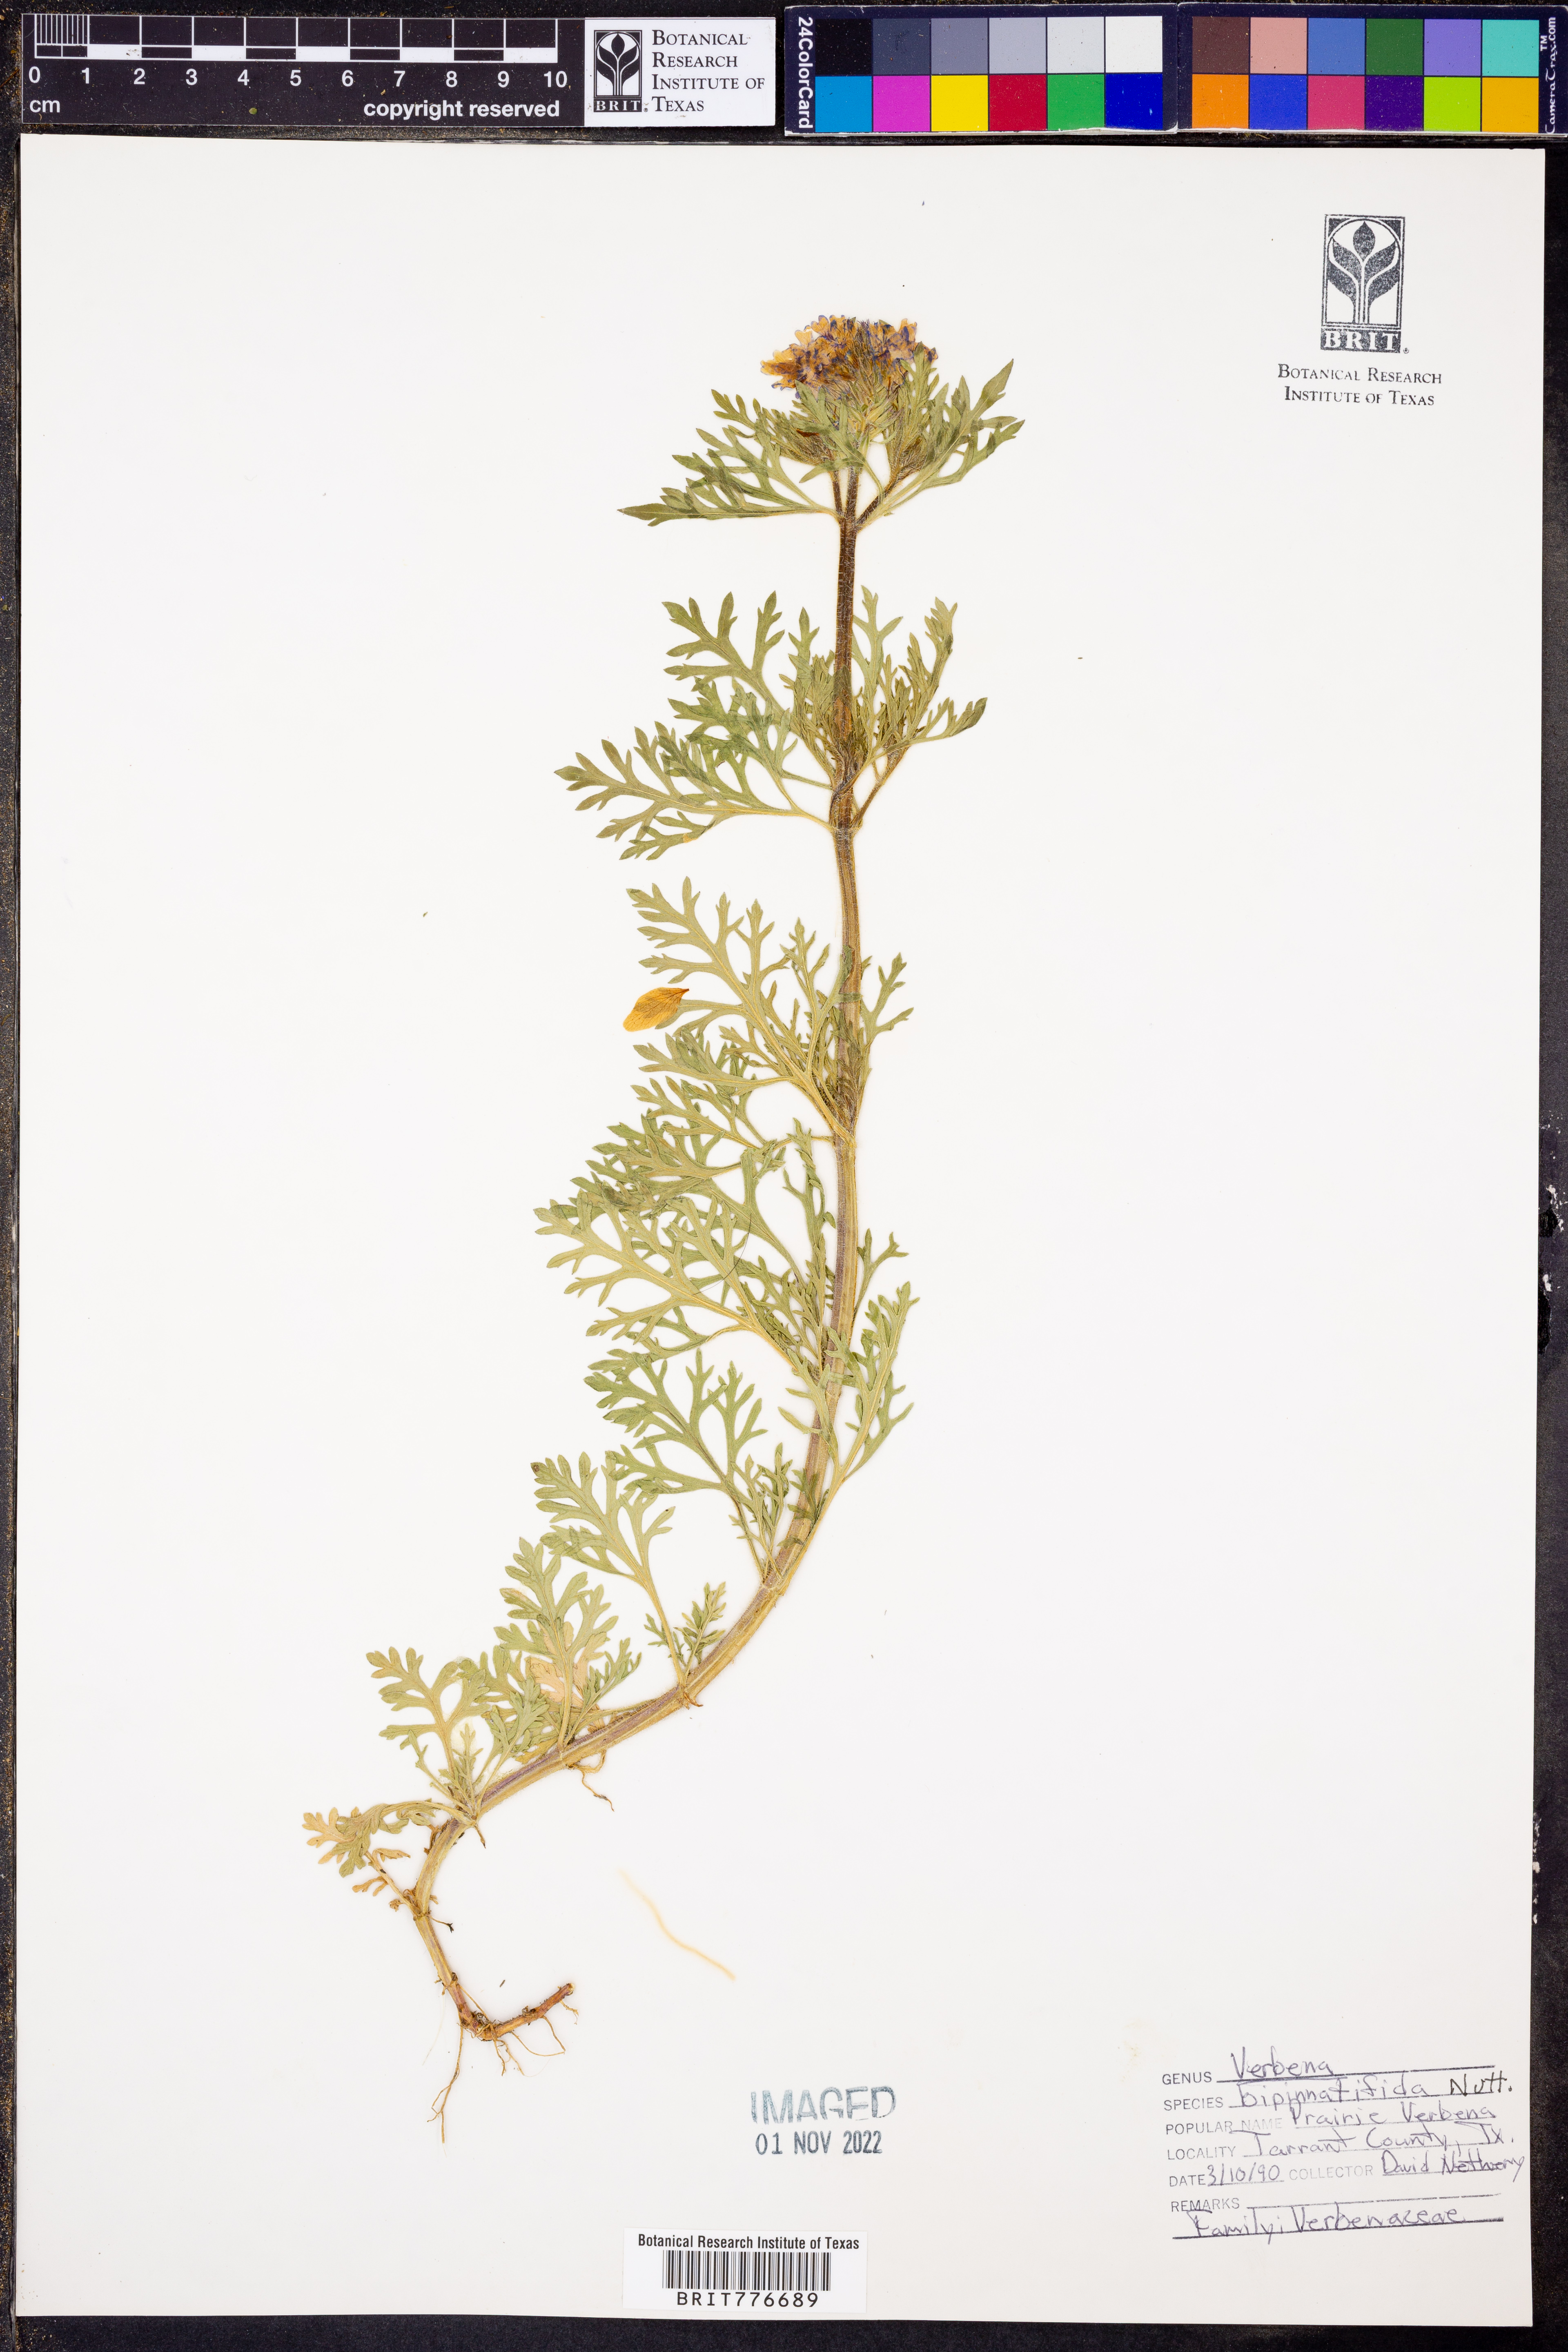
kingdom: Plantae
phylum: Tracheophyta
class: Magnoliopsida
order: Lamiales
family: Verbenaceae
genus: Verbena
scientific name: Verbena bipinnatifida
